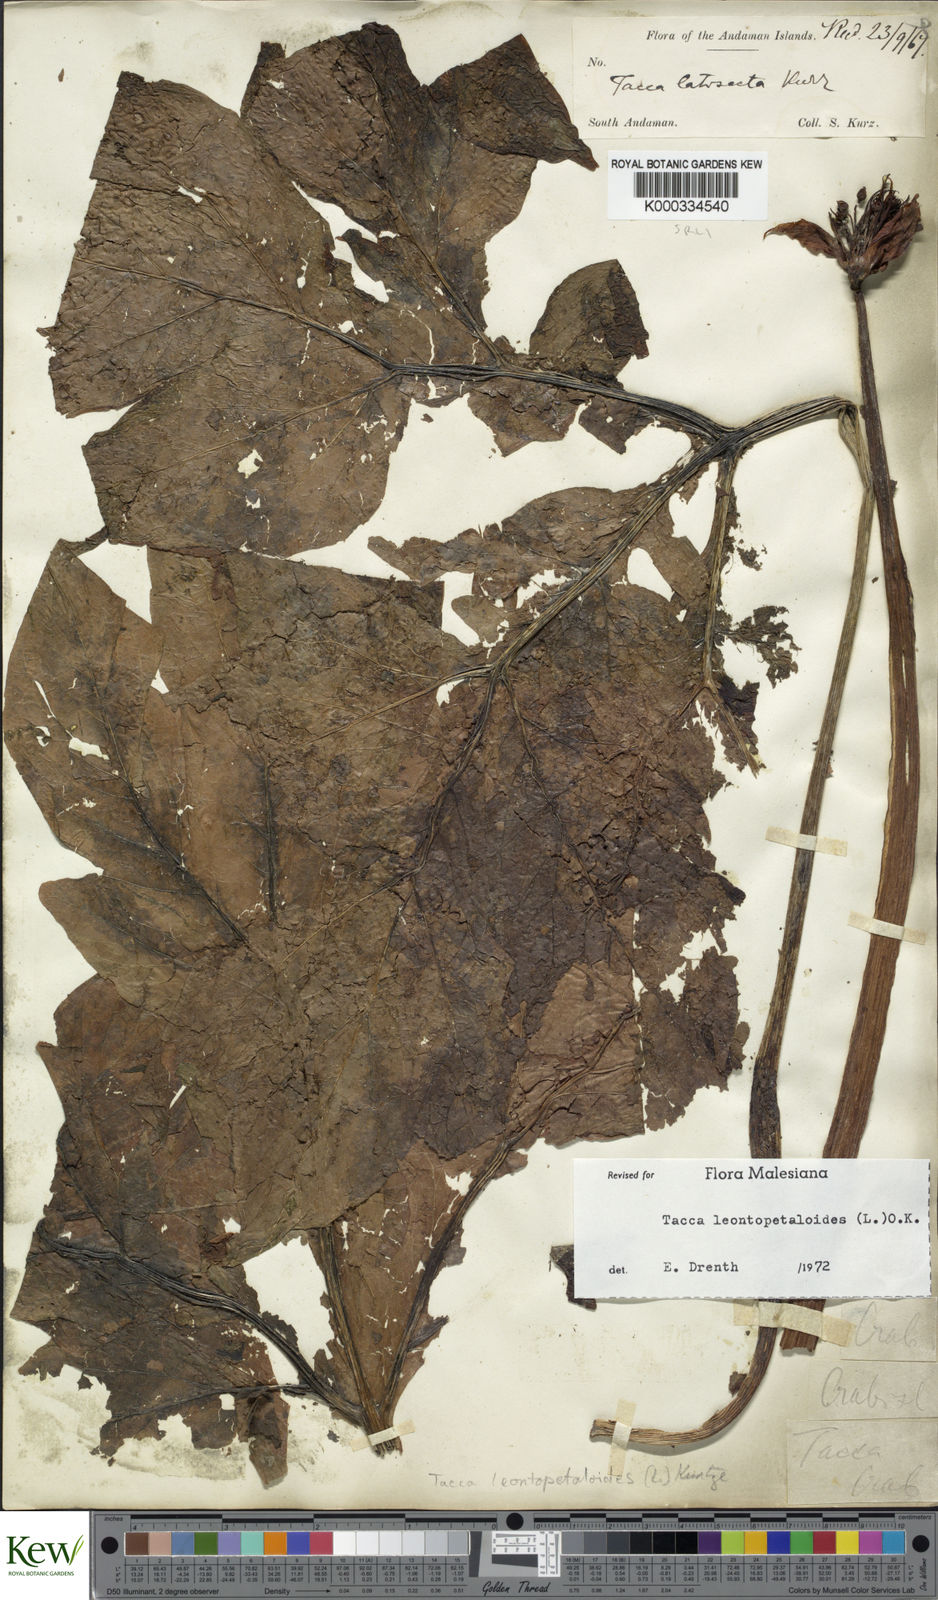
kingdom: Plantae
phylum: Tracheophyta
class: Liliopsida
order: Dioscoreales
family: Dioscoreaceae
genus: Tacca
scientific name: Tacca leontopetaloides
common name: Arrowroot
